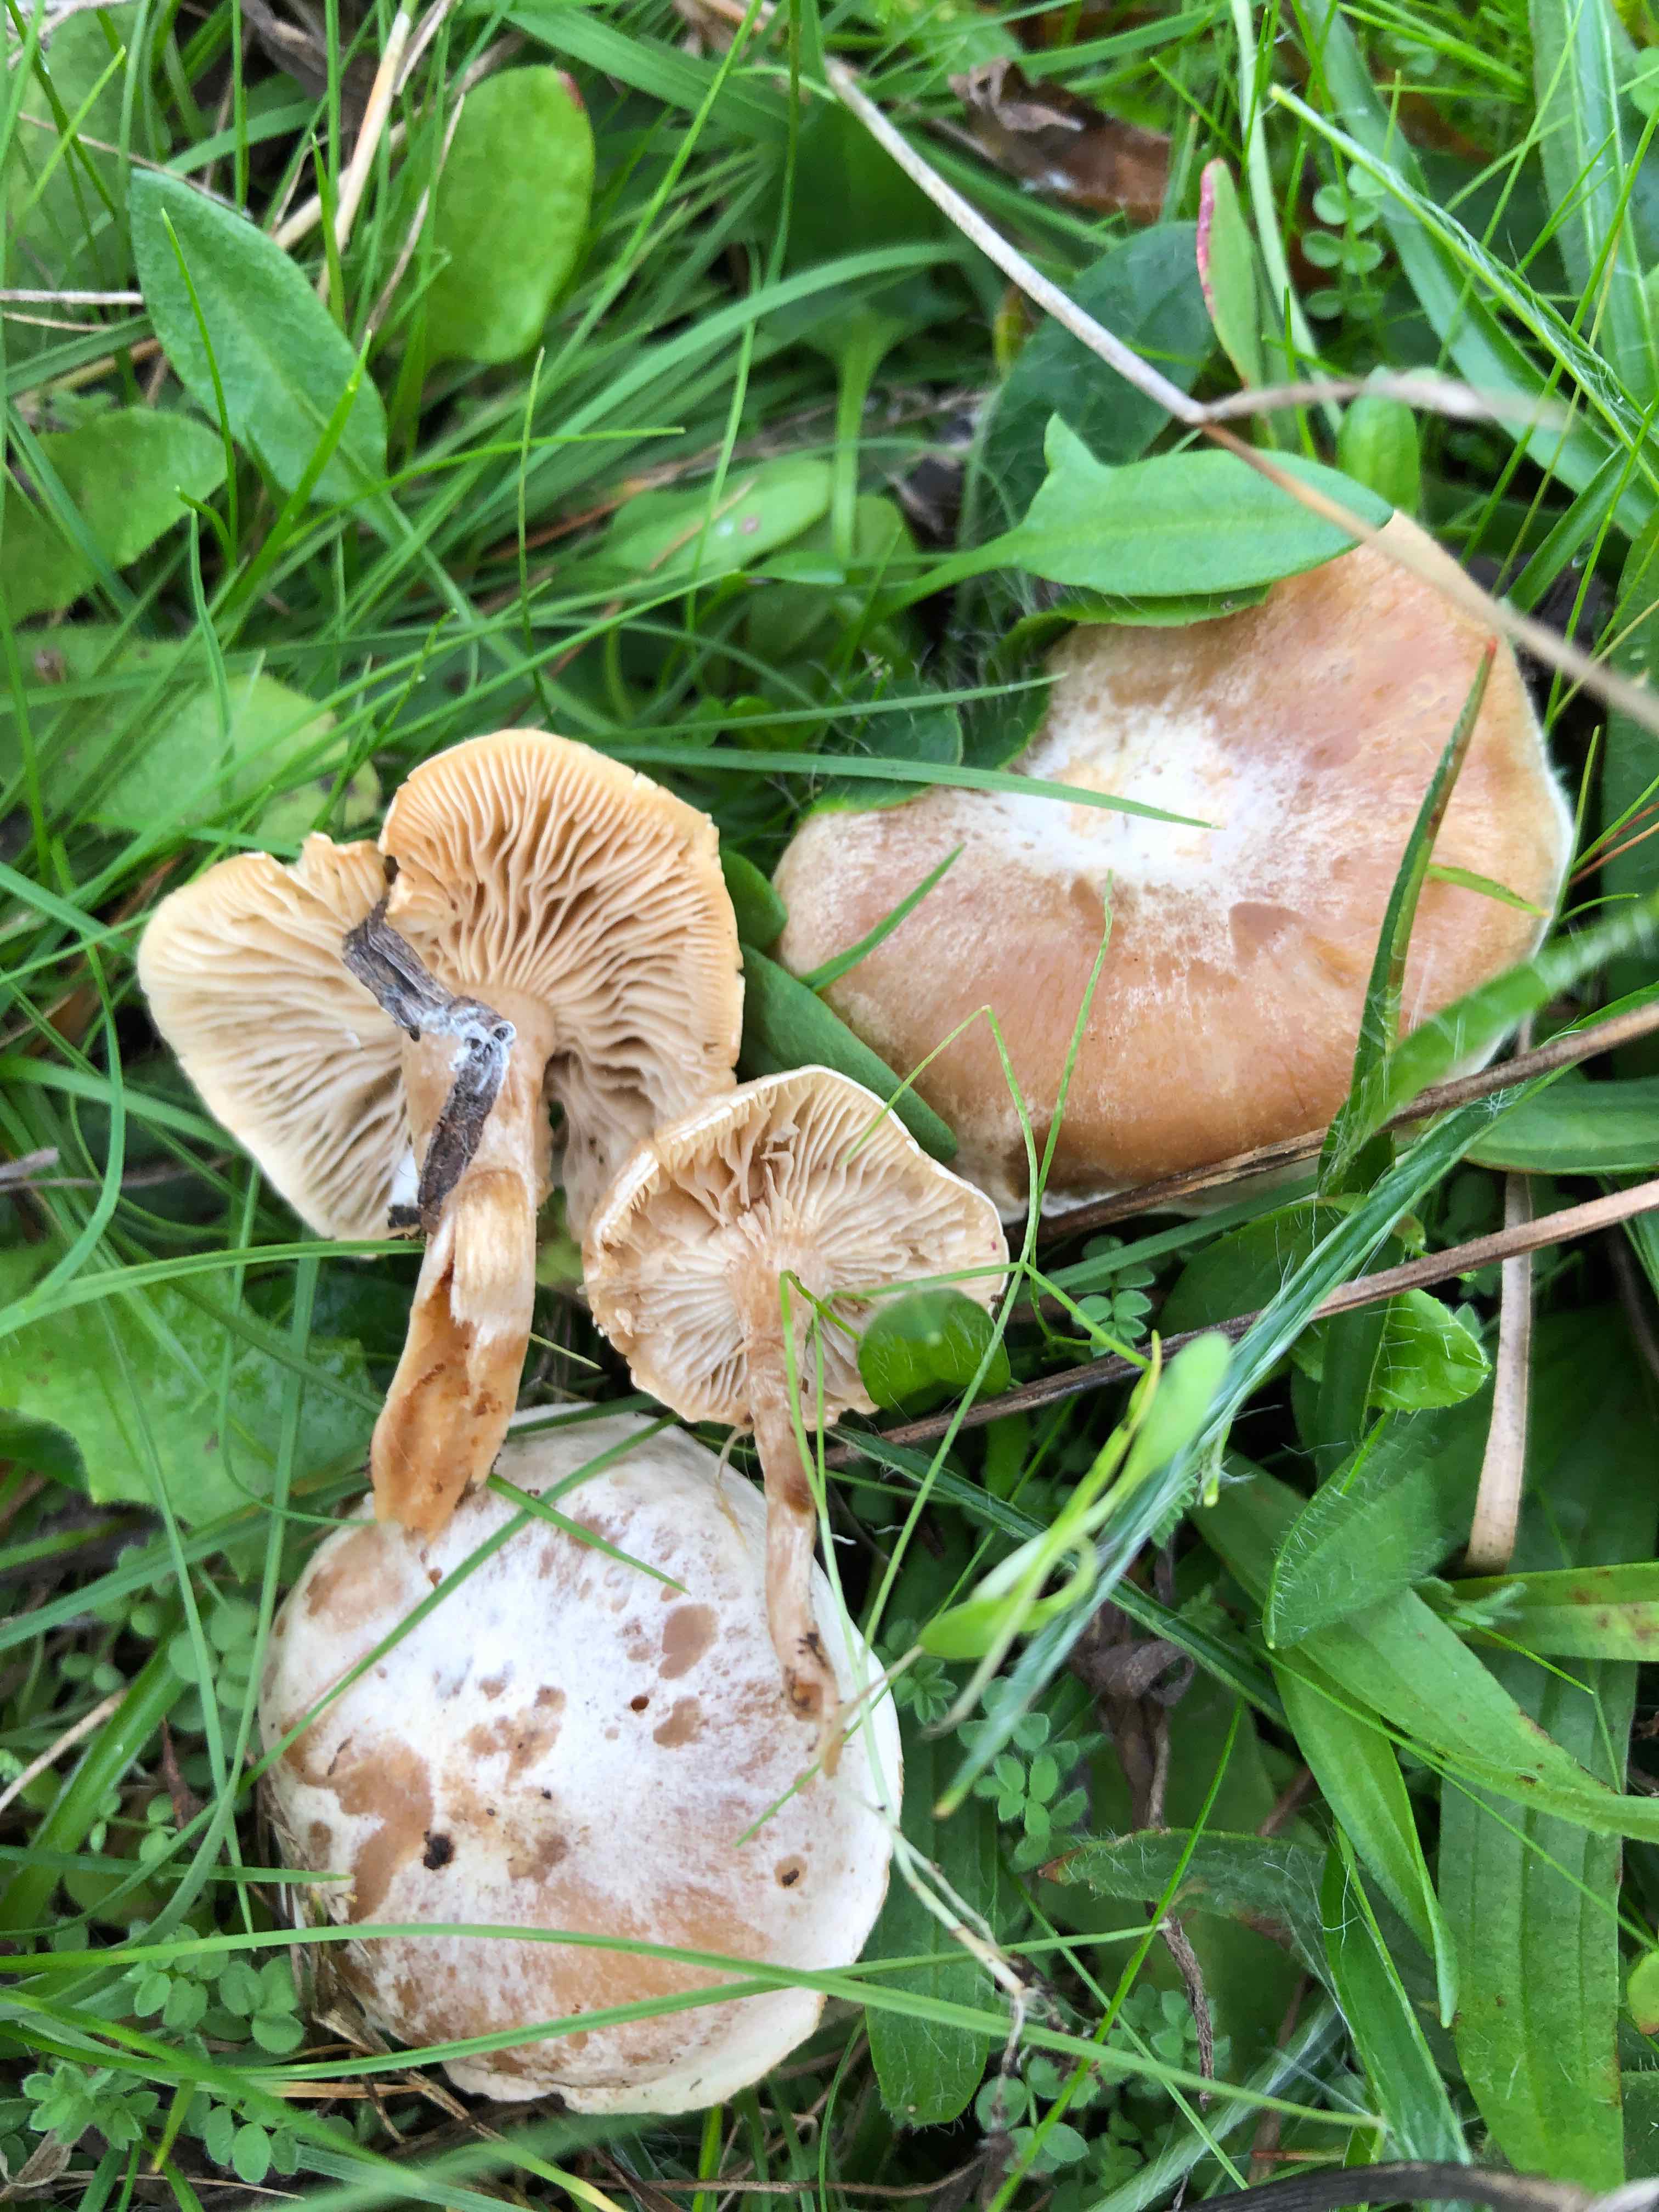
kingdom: Fungi
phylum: Basidiomycota
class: Agaricomycetes
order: Agaricales
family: Tricholomataceae
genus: Clitocybe
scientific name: Clitocybe rivulosa
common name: eng-tragthat
